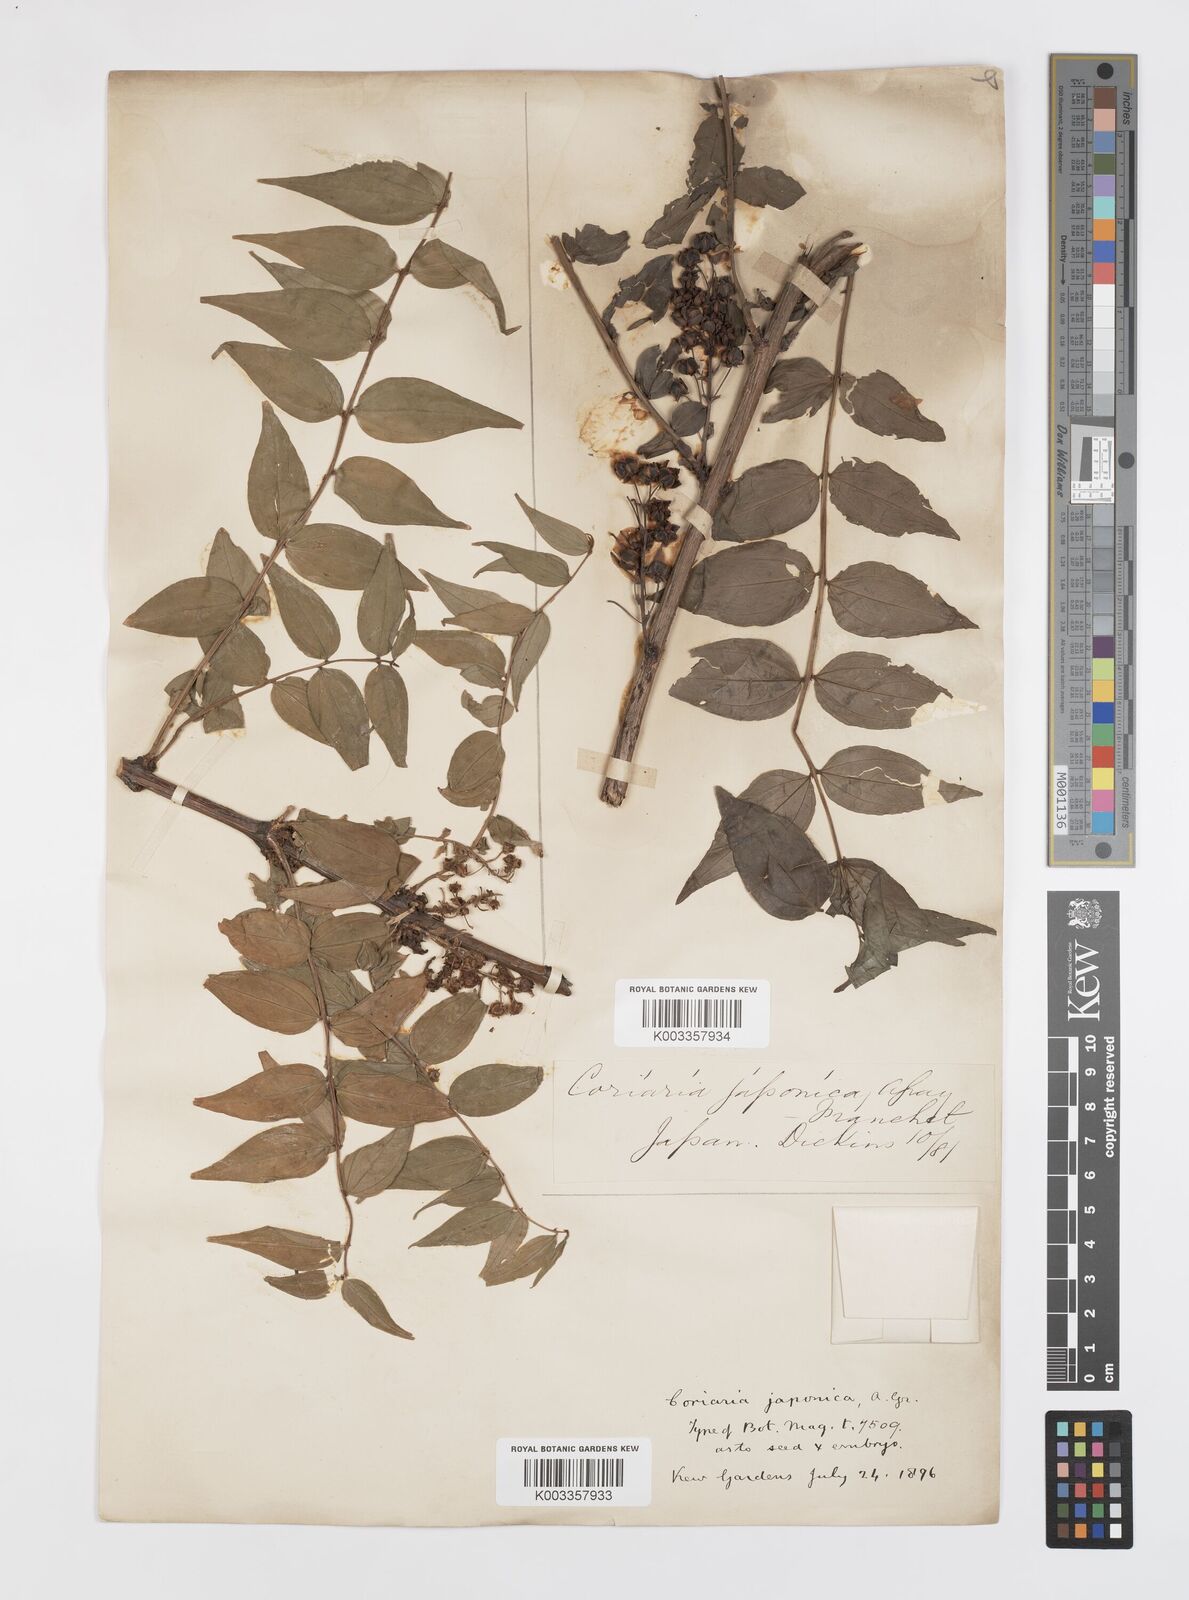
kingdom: Plantae
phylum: Tracheophyta
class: Magnoliopsida
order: Cucurbitales
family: Coriariaceae
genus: Coriaria
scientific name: Coriaria japonica
